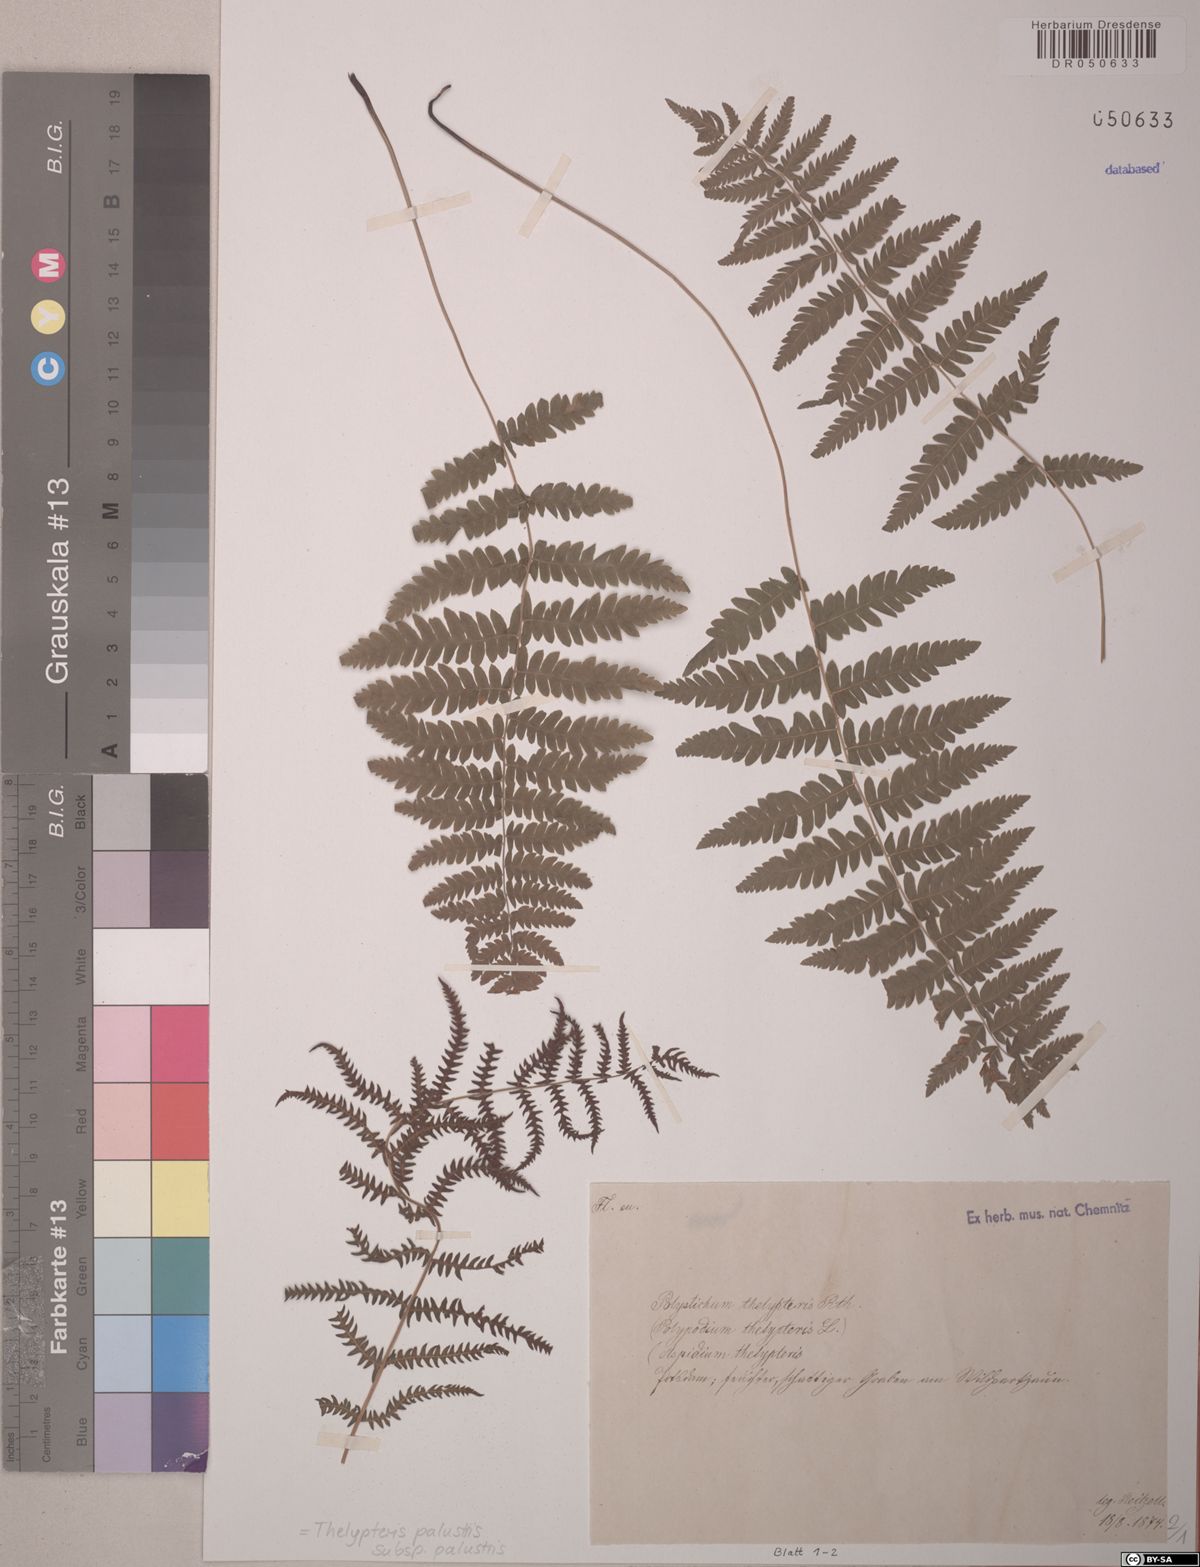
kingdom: Plantae
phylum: Tracheophyta
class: Polypodiopsida
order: Polypodiales
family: Thelypteridaceae
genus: Thelypteris
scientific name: Thelypteris palustris
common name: Marsh fern
